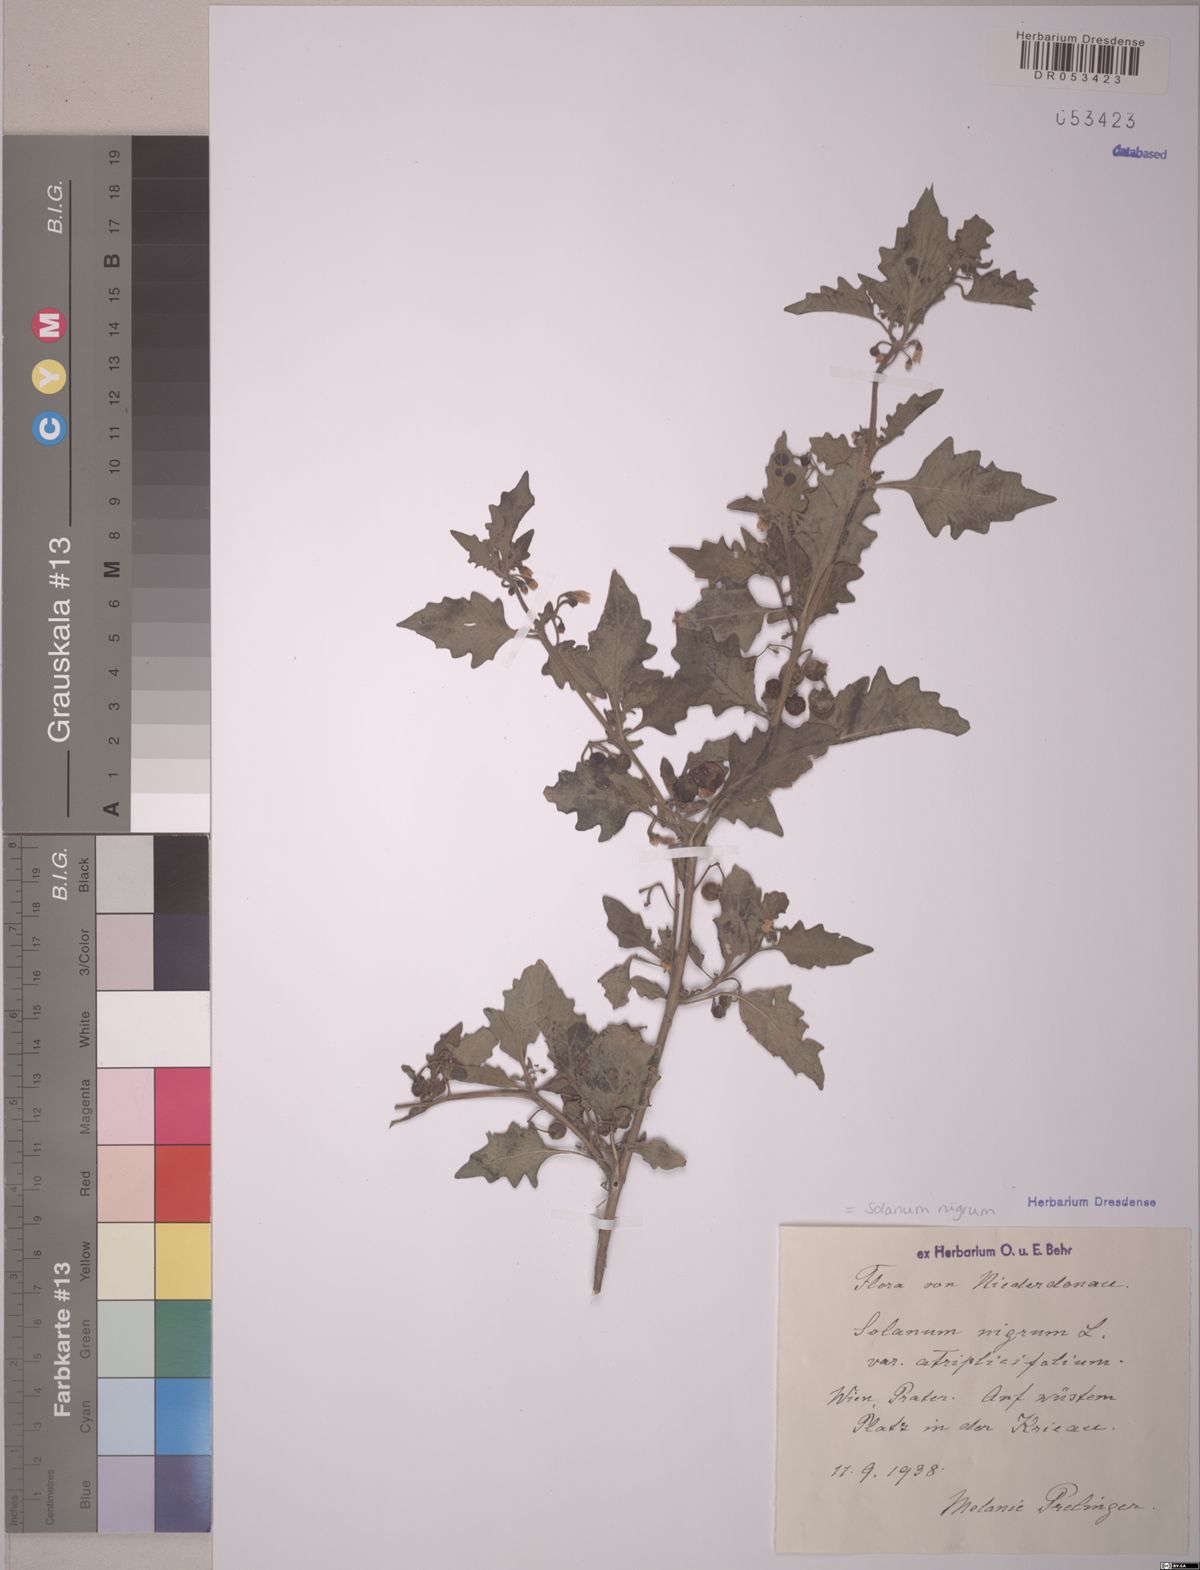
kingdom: Plantae
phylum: Tracheophyta
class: Magnoliopsida
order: Solanales
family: Solanaceae
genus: Solanum
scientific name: Solanum nigrum
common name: Black nightshade
